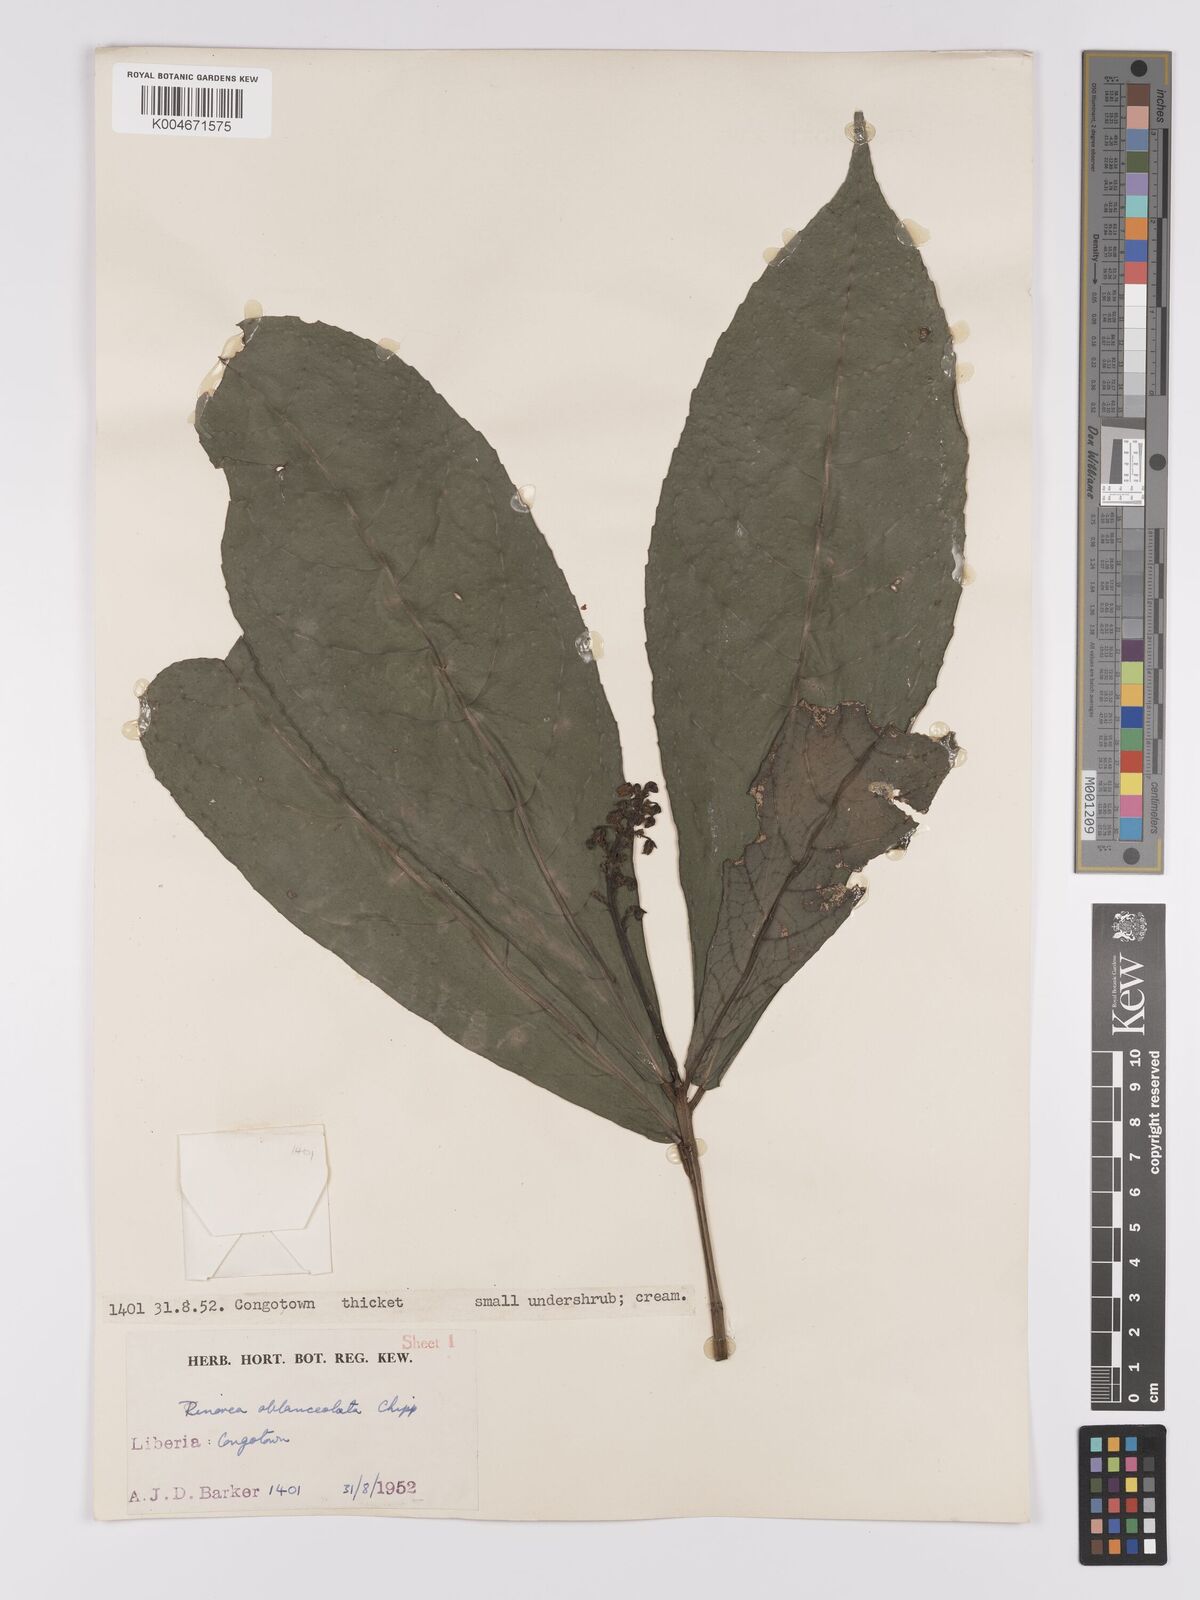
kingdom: Plantae
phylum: Tracheophyta
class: Magnoliopsida
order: Malpighiales
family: Violaceae
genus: Rinorea
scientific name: Rinorea oblanceolata
